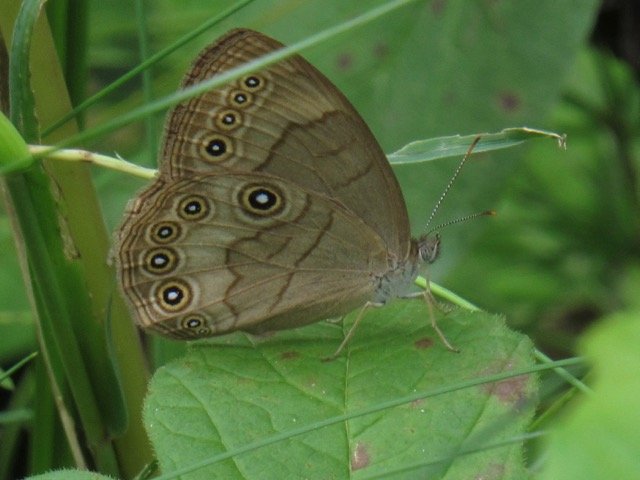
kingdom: Animalia
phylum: Arthropoda
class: Insecta
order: Lepidoptera
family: Nymphalidae
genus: Lethe
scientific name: Lethe eurydice
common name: Appalachian Eyed Brown
